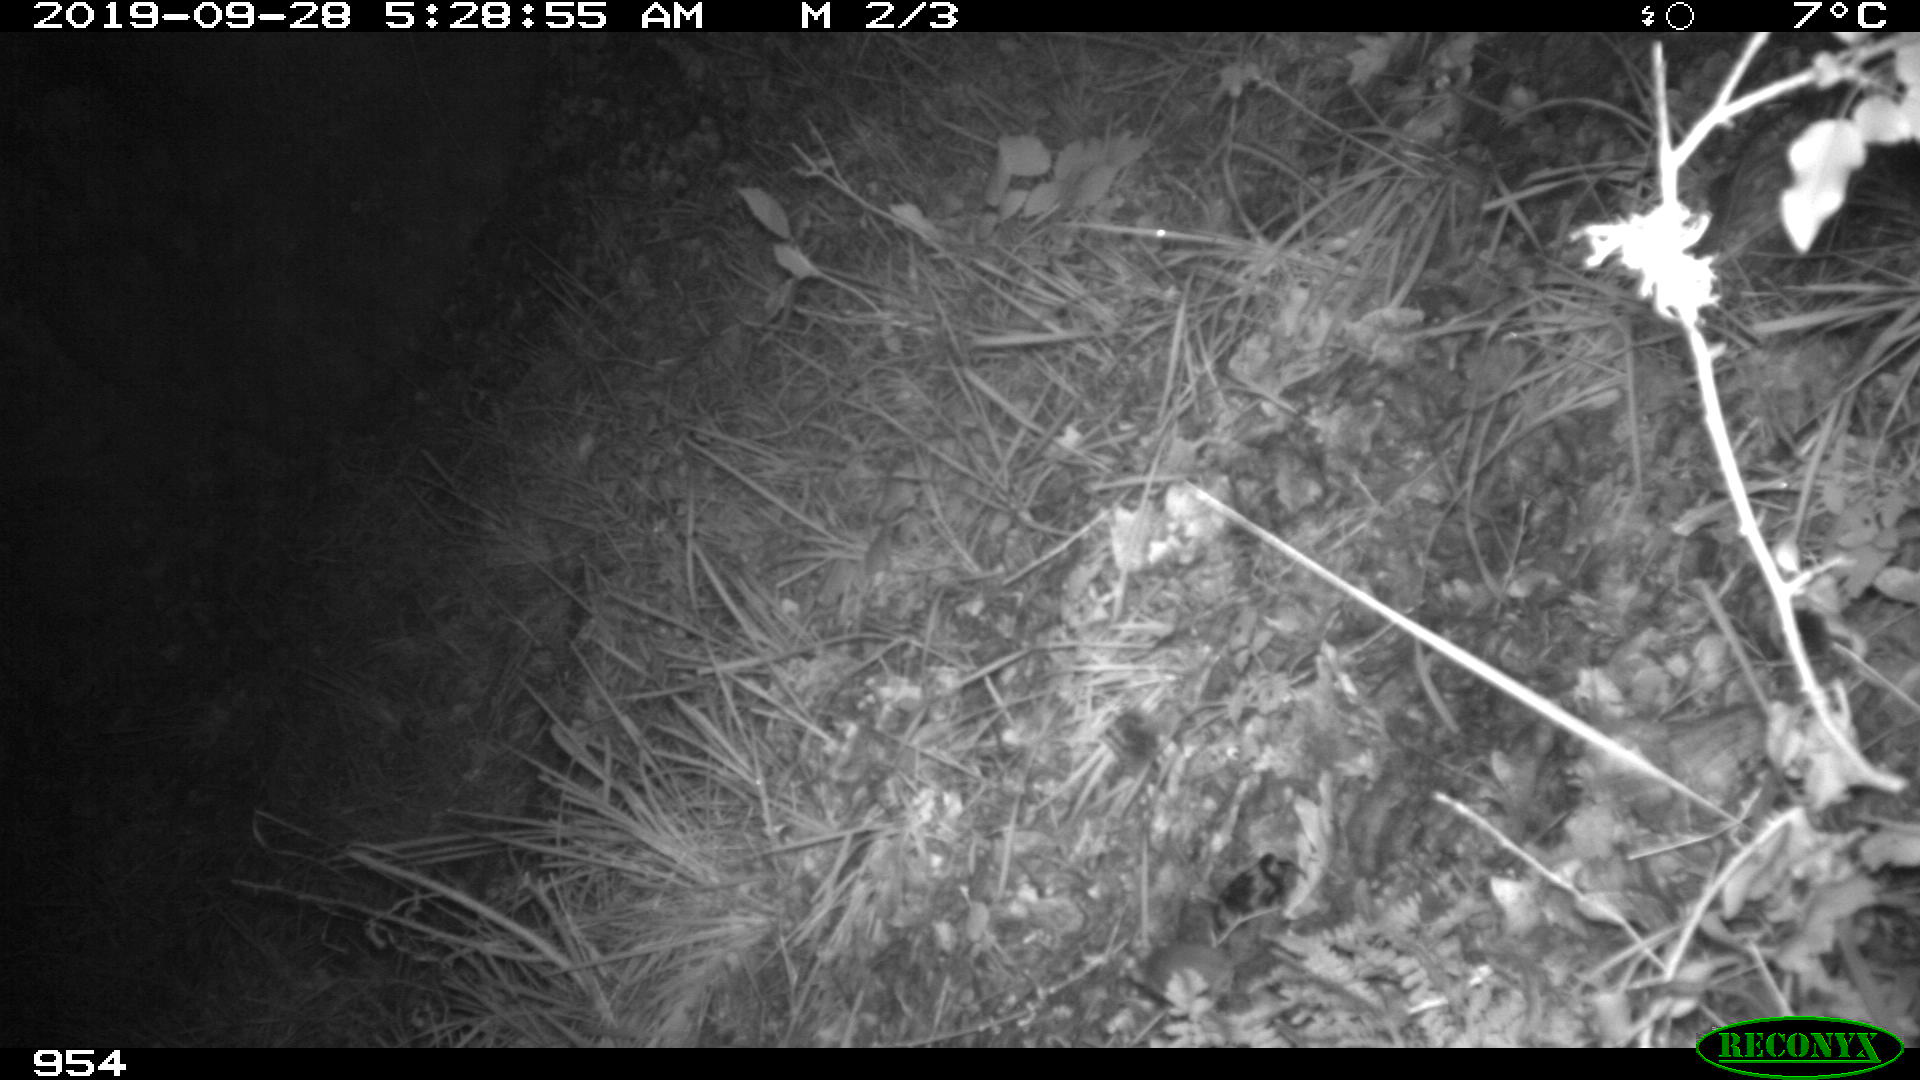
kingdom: Animalia
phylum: Chordata
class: Mammalia
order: Rodentia
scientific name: Rodentia
